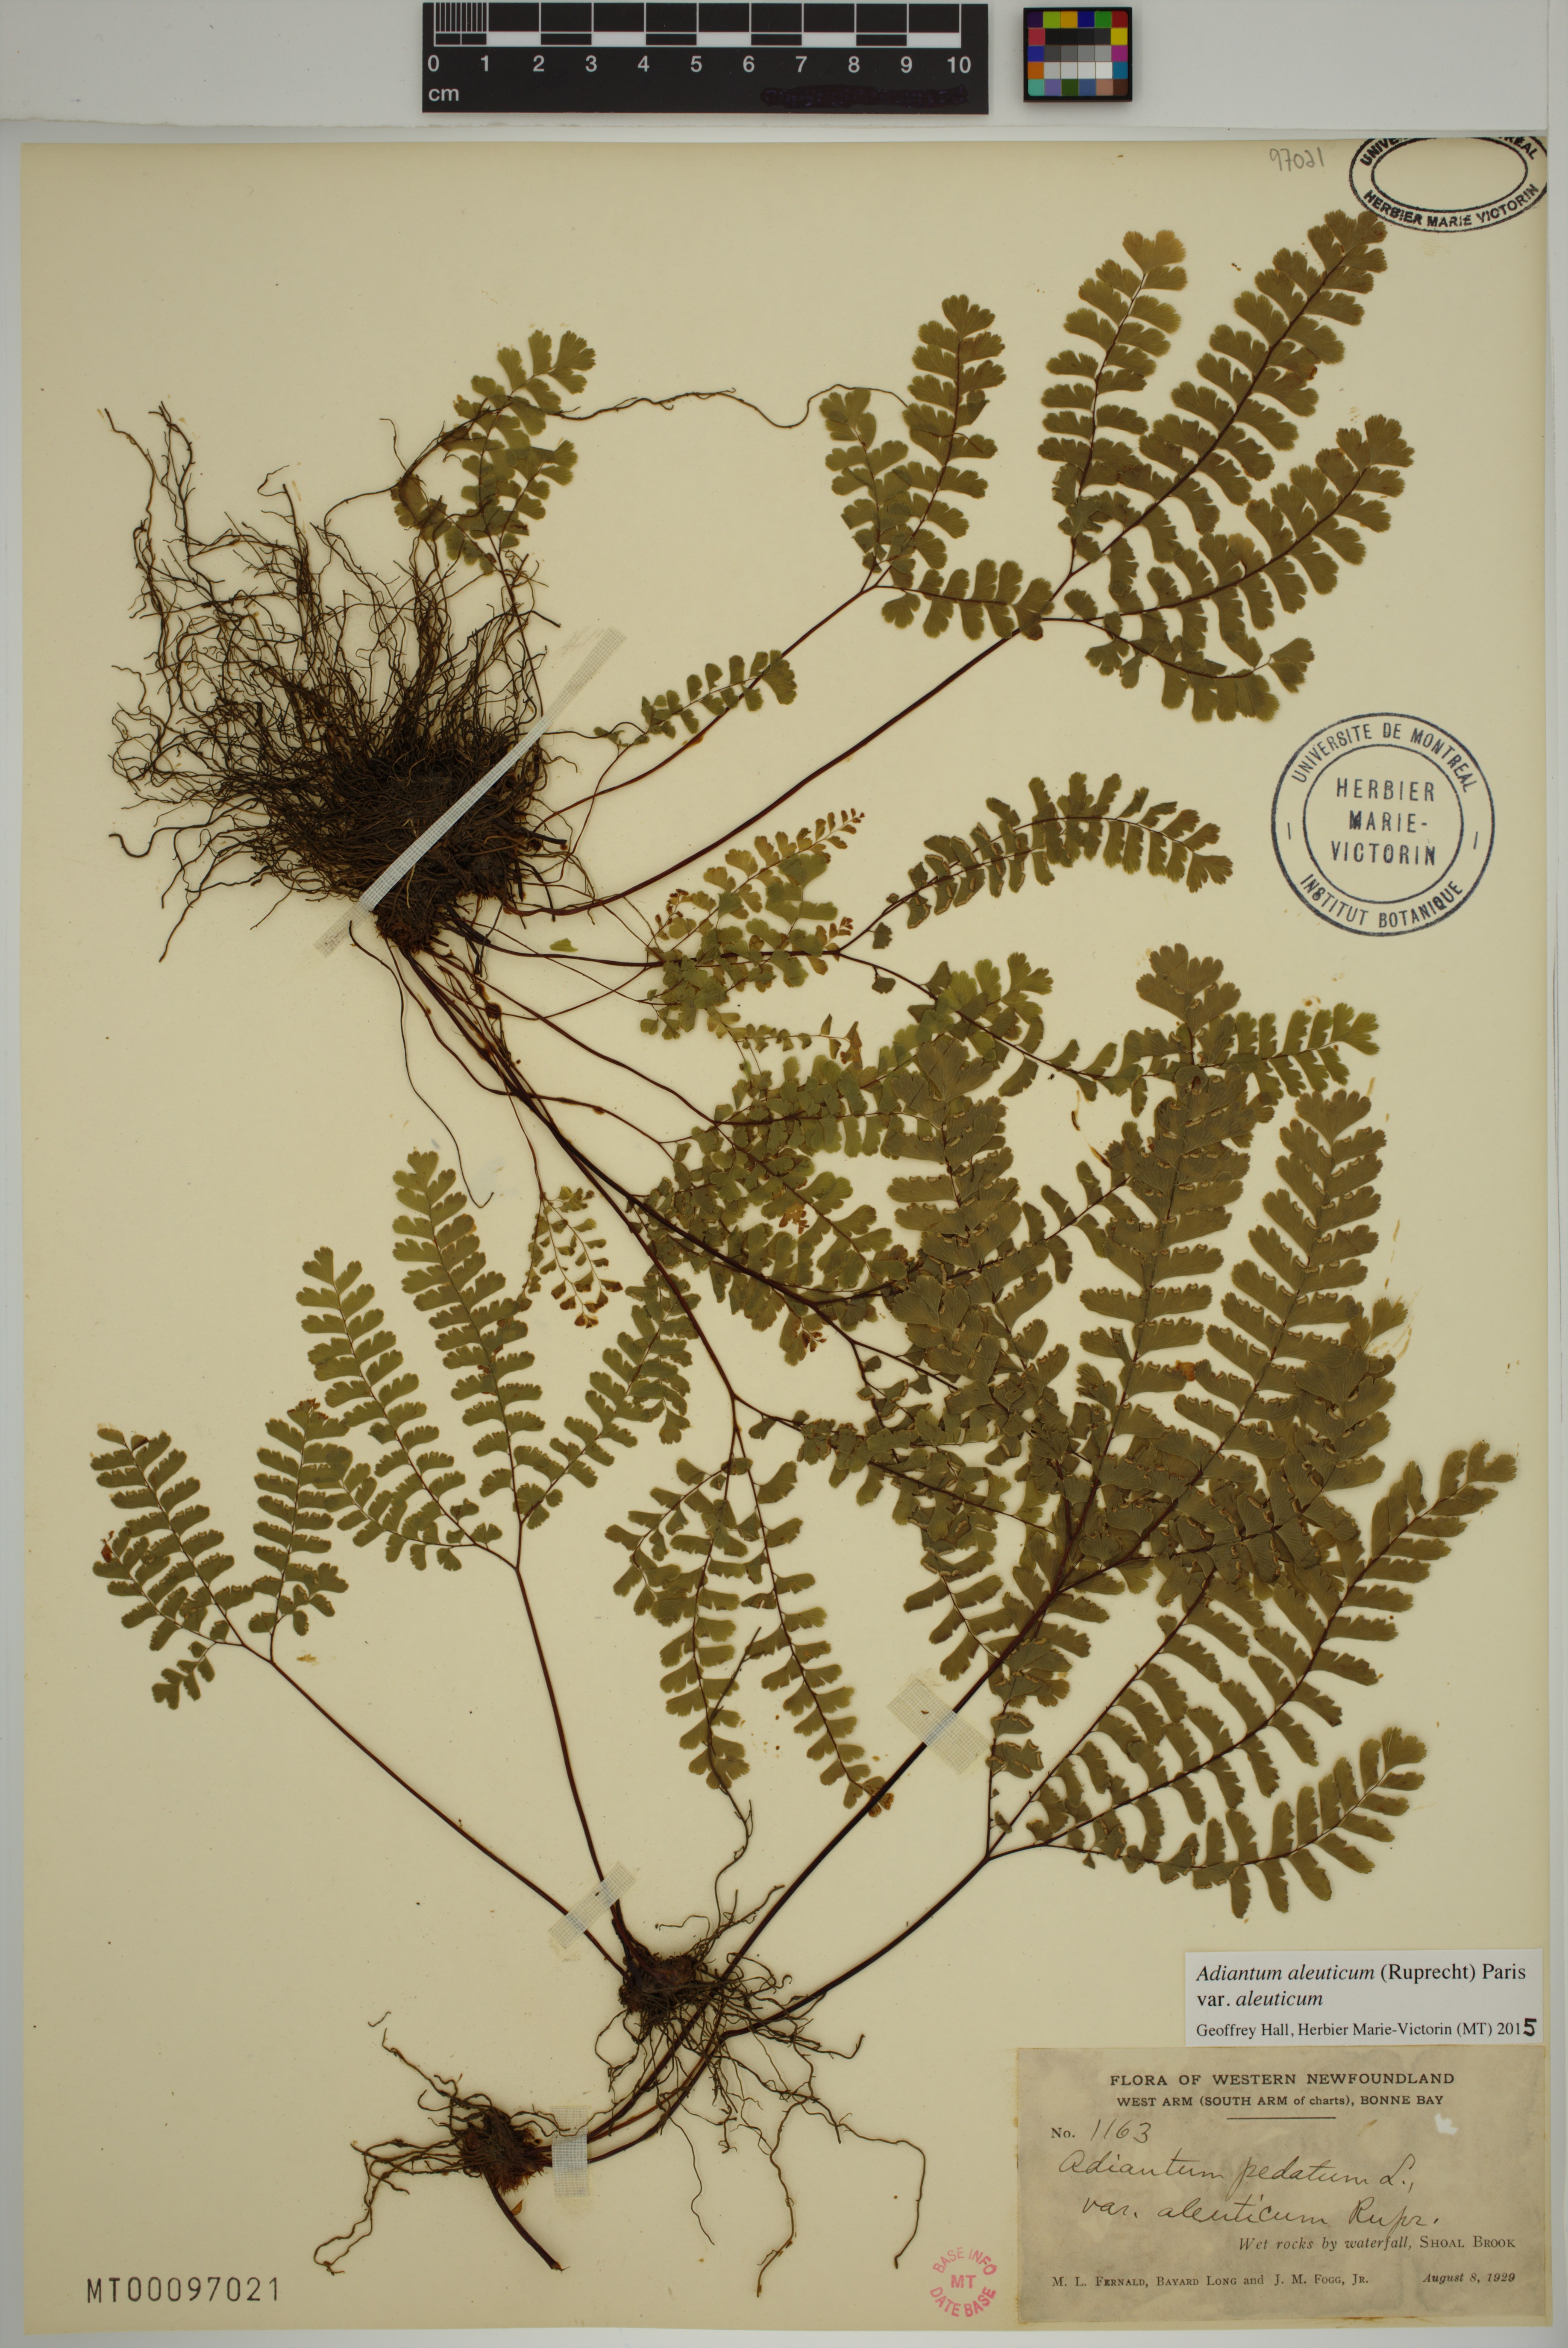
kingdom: Plantae
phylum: Tracheophyta
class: Polypodiopsida
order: Polypodiales
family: Pteridaceae
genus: Adiantum
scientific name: Adiantum aleuticum
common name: Aleutian maidenhair fern
